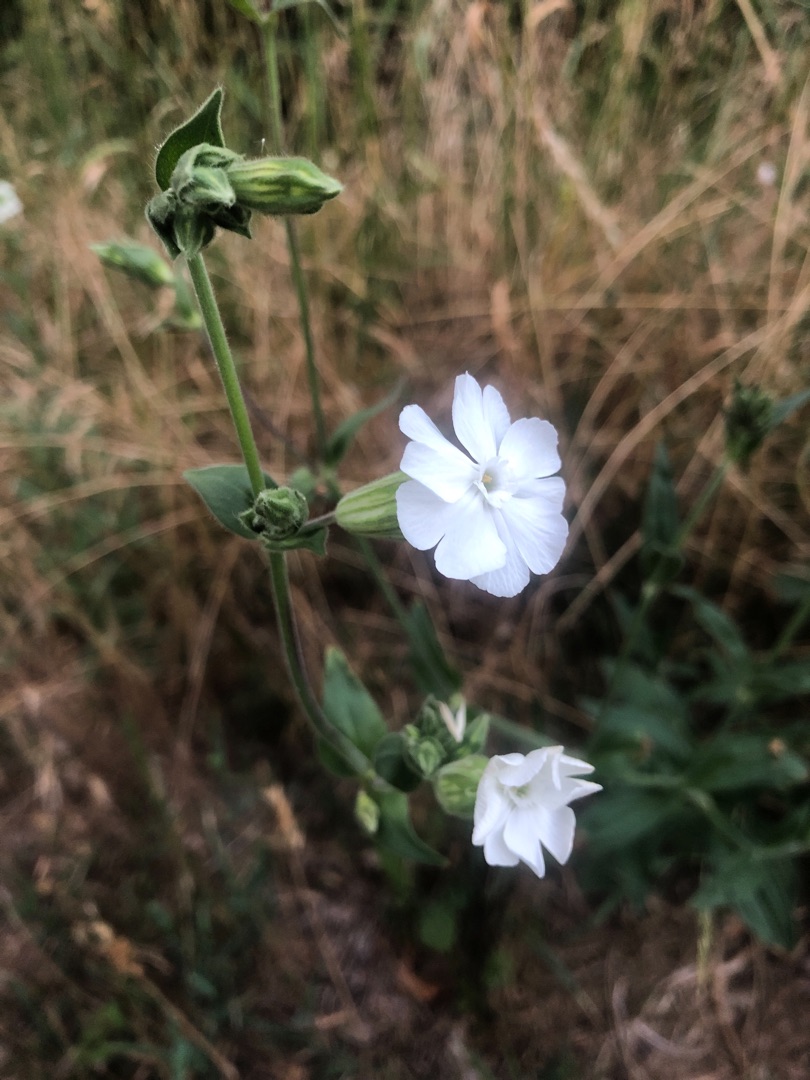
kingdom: Plantae
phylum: Tracheophyta
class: Magnoliopsida
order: Caryophyllales
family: Caryophyllaceae
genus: Silene
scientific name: Silene latifolia
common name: Aftenpragtstjerne
